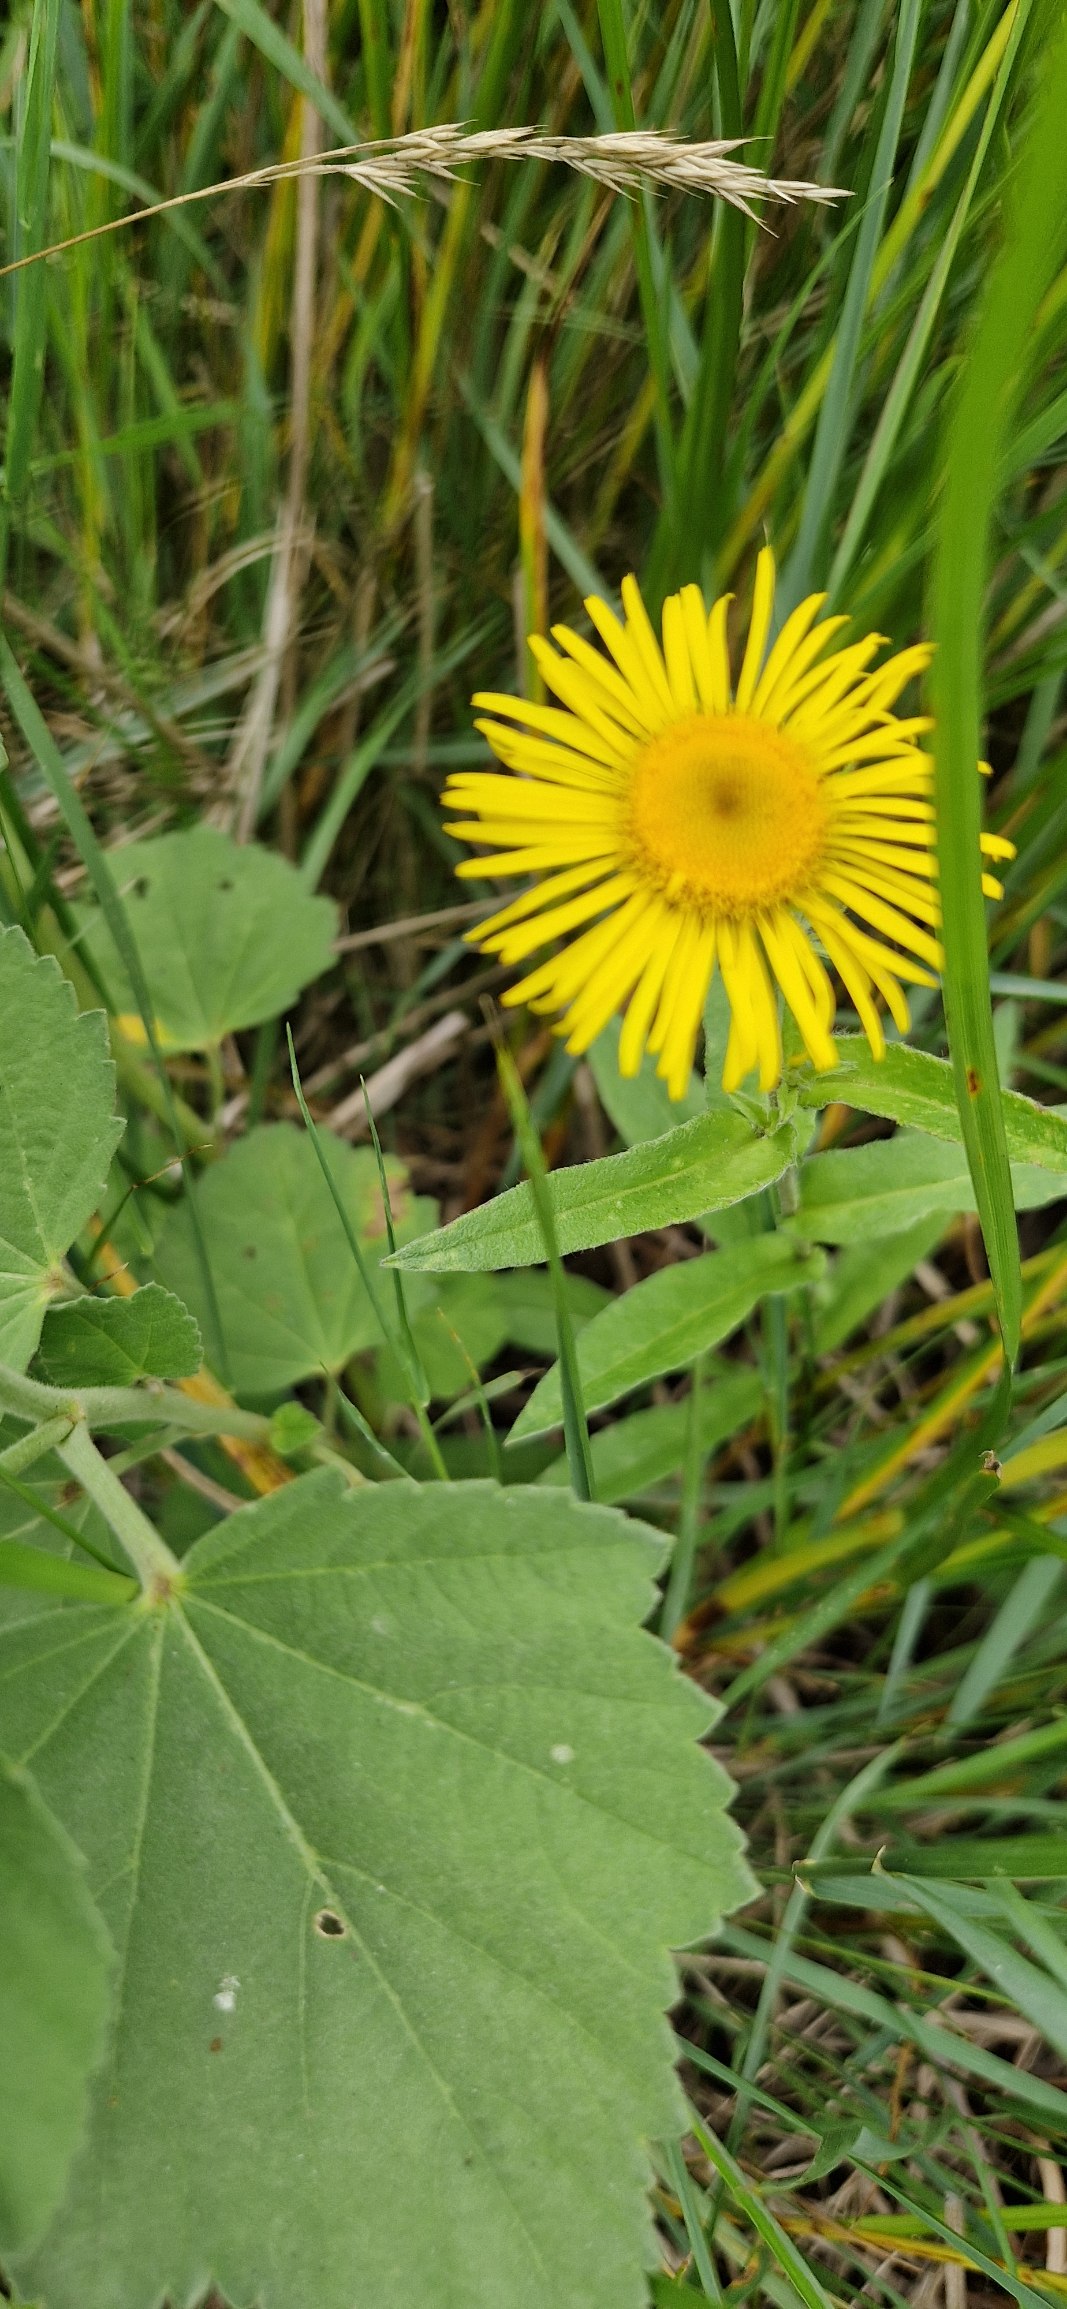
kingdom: Plantae
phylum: Tracheophyta
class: Magnoliopsida
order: Asterales
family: Asteraceae
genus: Pentanema
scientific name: Pentanema britannicum
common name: Soløje-alant
